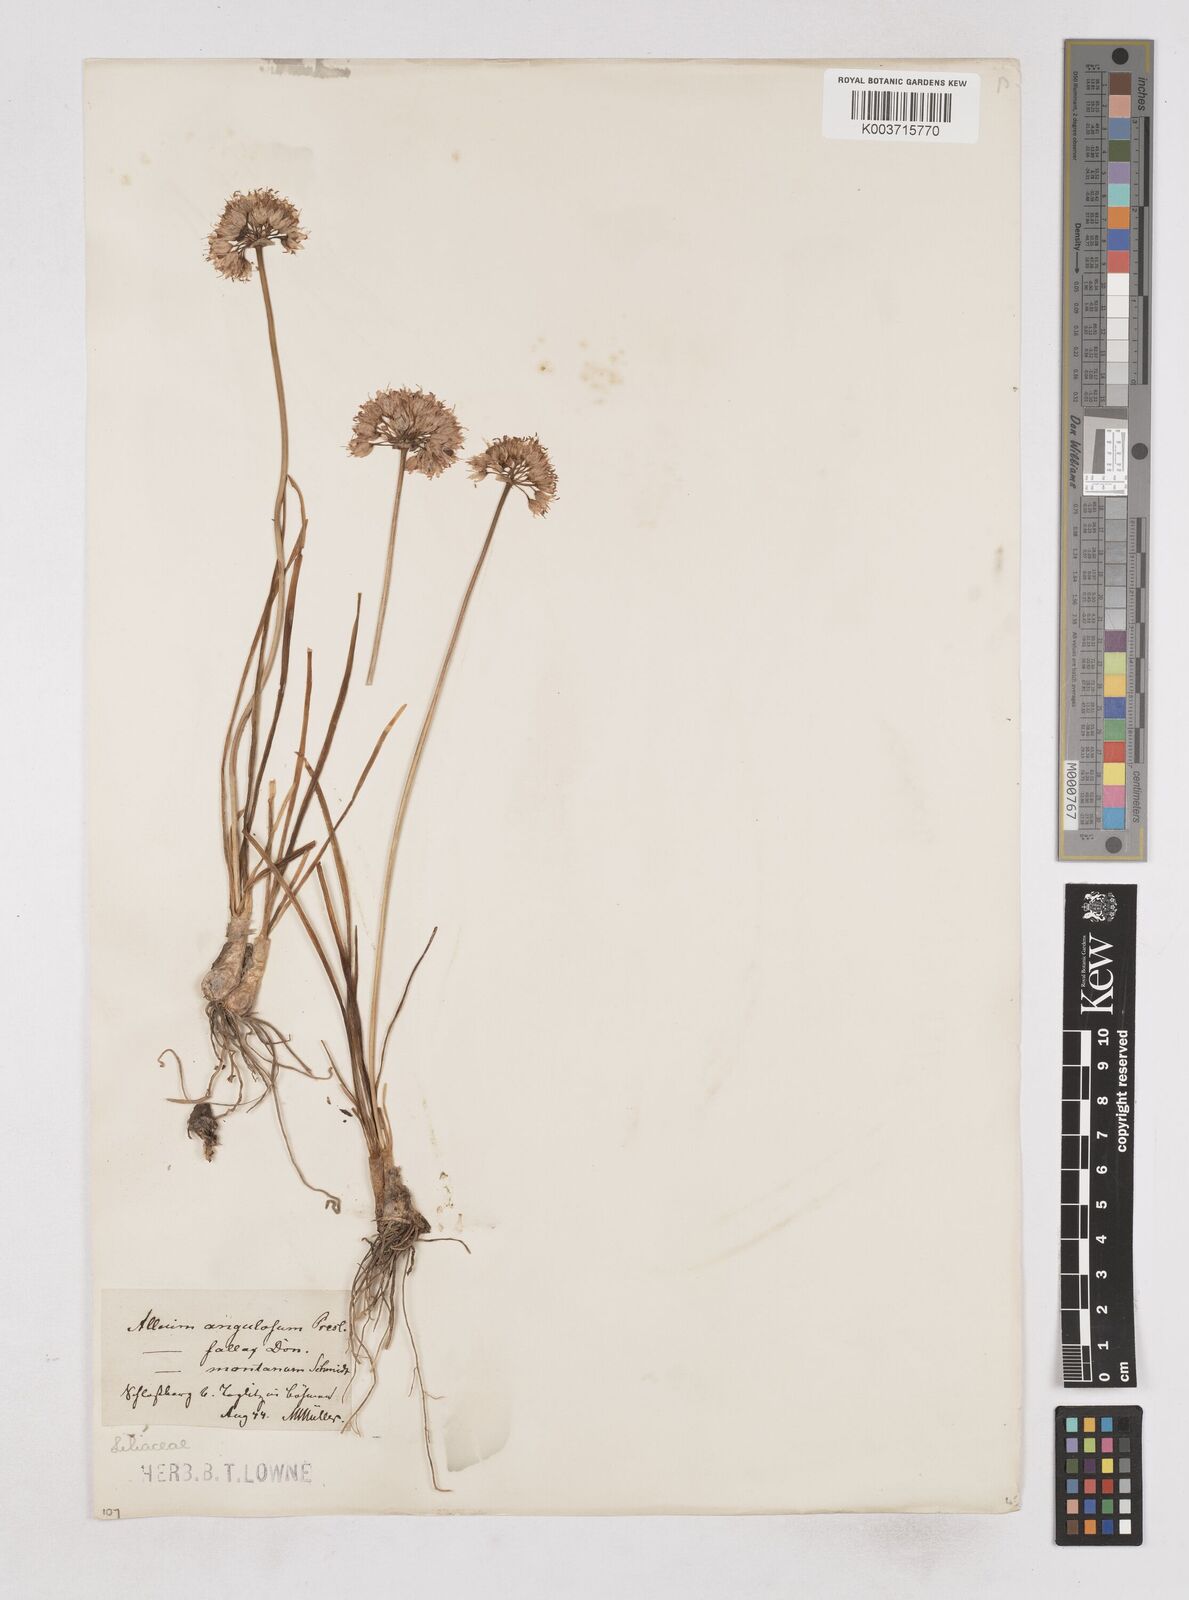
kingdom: Plantae
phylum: Tracheophyta
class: Liliopsida
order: Asparagales
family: Amaryllidaceae
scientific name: Amaryllidaceae
